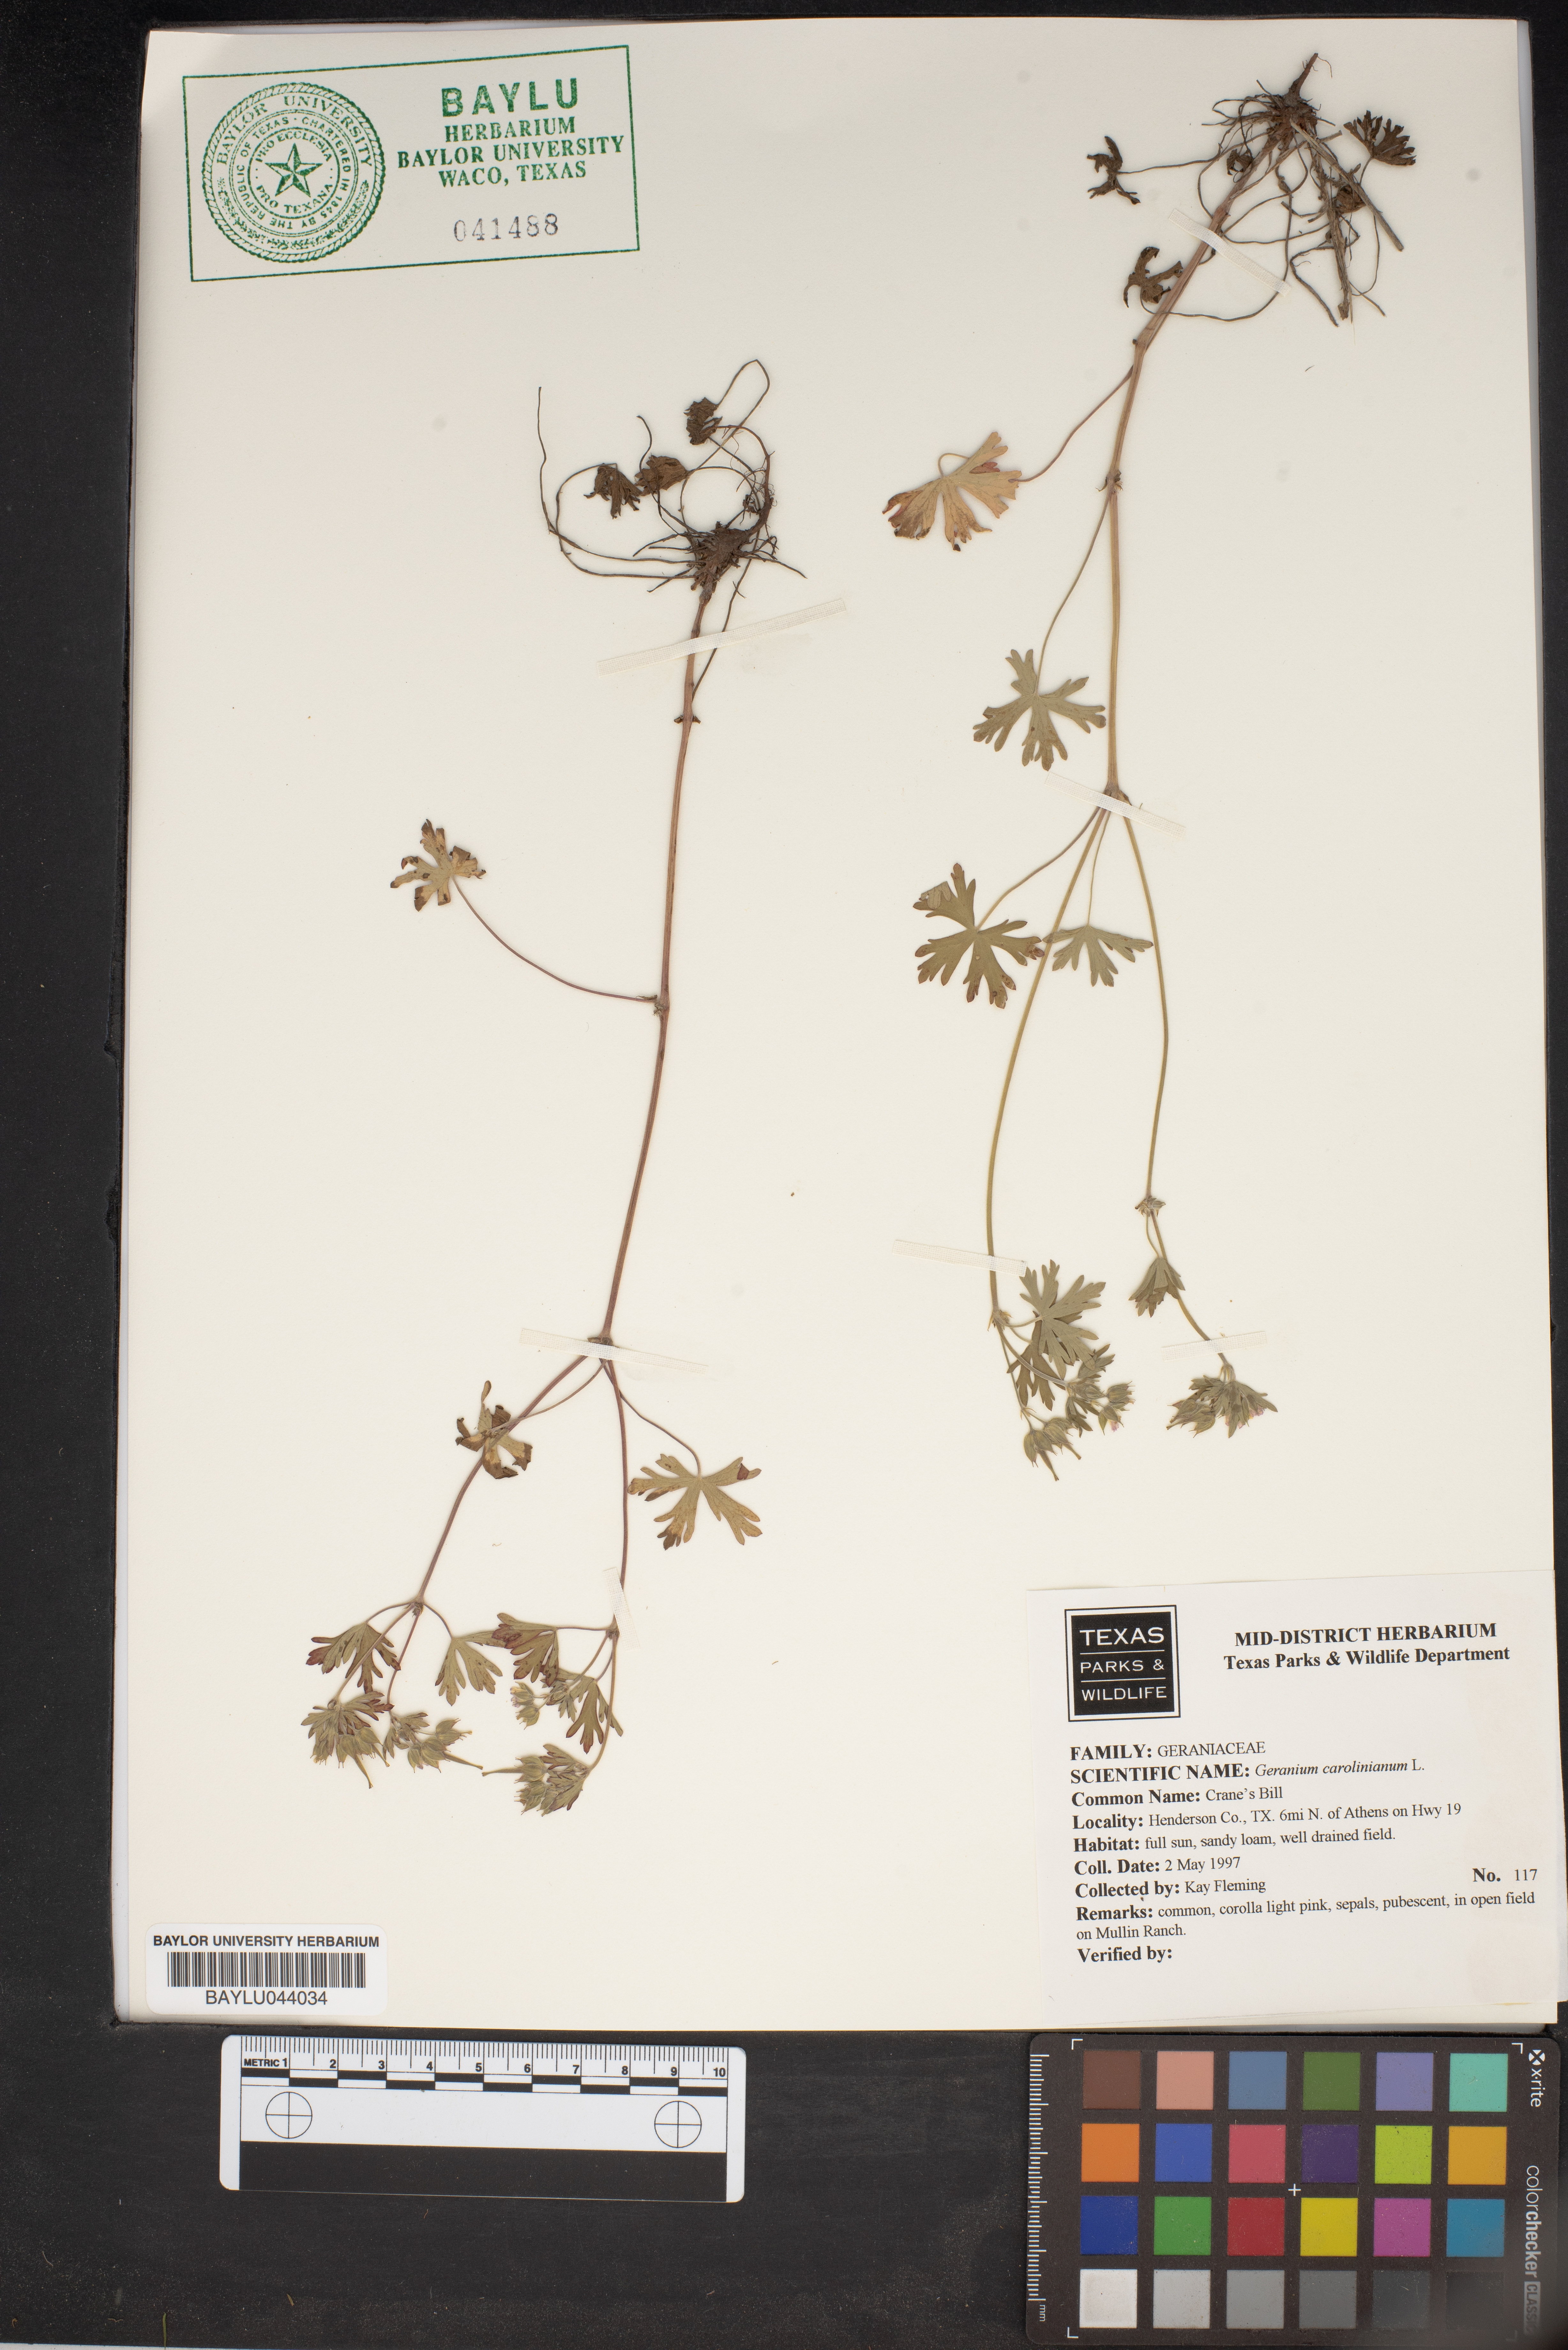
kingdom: Plantae
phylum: Tracheophyta
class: Magnoliopsida
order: Geraniales
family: Geraniaceae
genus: Geranium
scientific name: Geranium carolinianum
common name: Carolina crane's-bill
